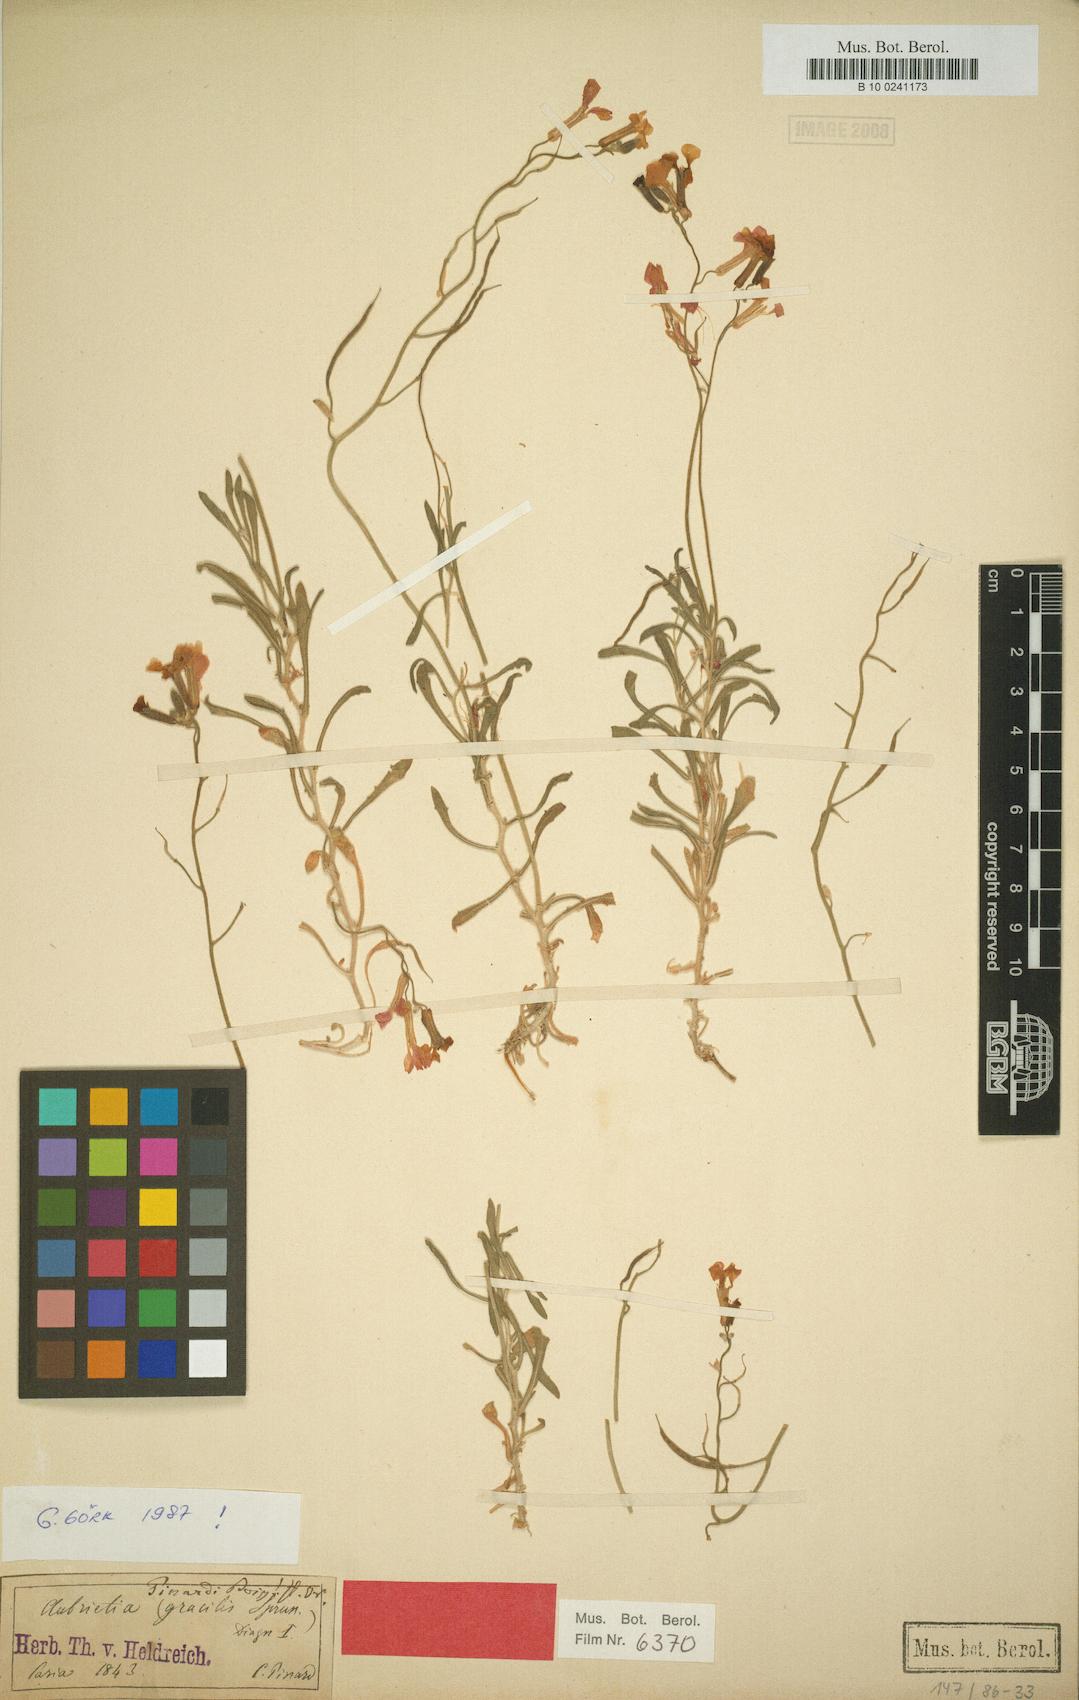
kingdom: Plantae
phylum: Tracheophyta
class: Magnoliopsida
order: Brassicales
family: Brassicaceae
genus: Aubrieta
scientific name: Aubrieta pinardii
